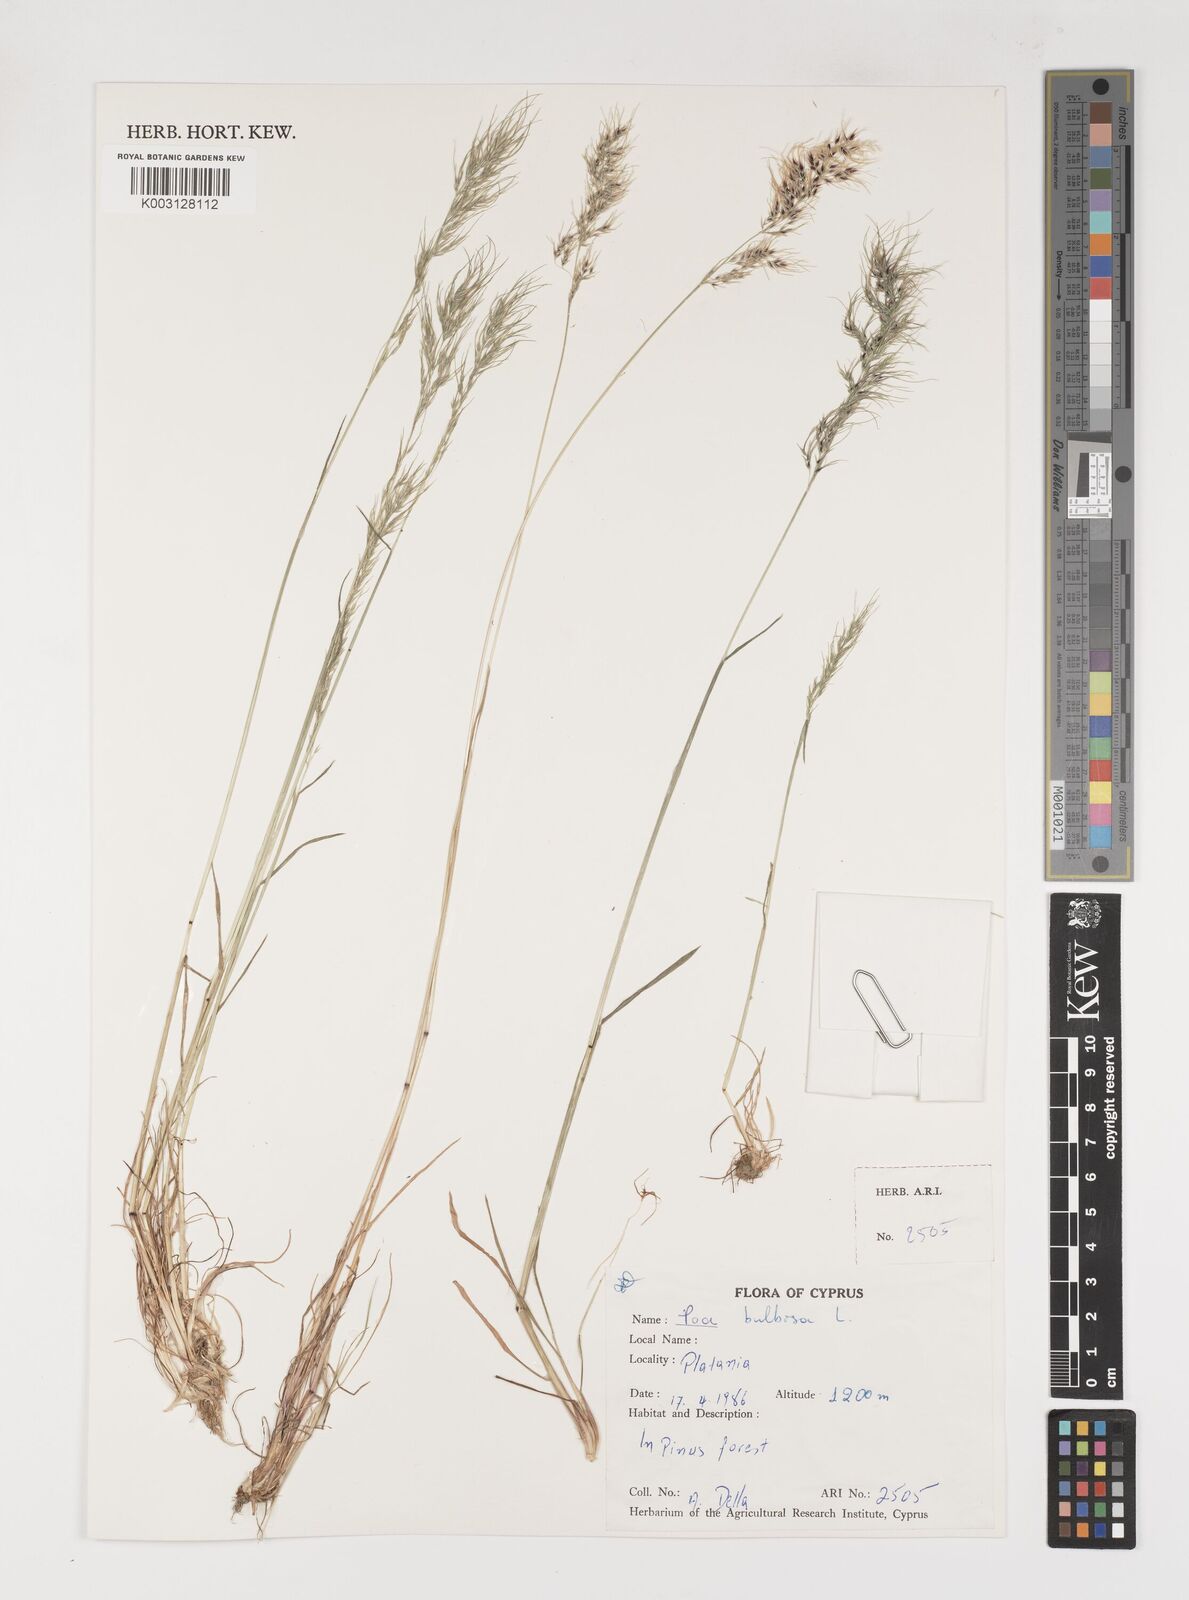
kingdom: Plantae
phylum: Tracheophyta
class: Liliopsida
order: Poales
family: Poaceae
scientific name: Poaceae
